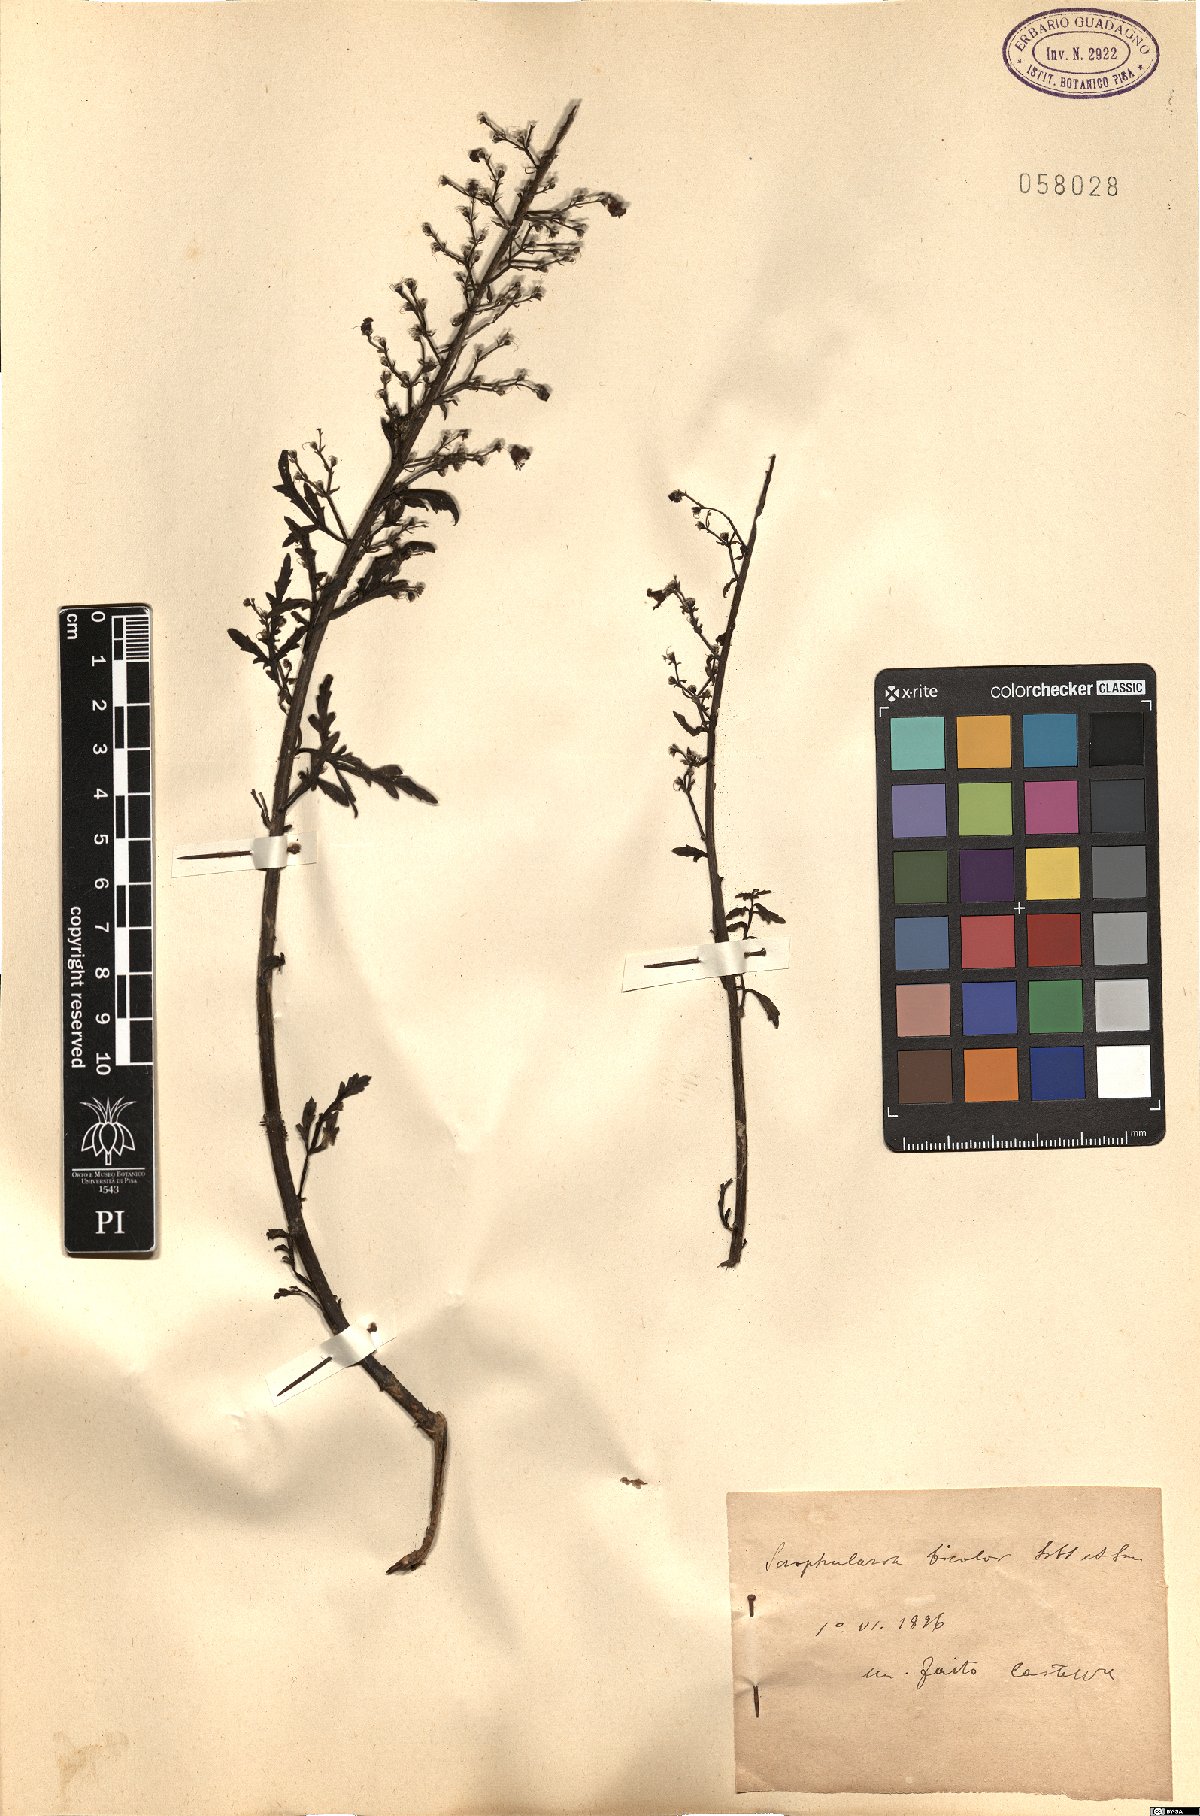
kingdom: Plantae
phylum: Tracheophyta
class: Magnoliopsida
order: Lamiales
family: Scrophulariaceae
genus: Scrophularia
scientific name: Scrophularia canina
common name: French figwort
